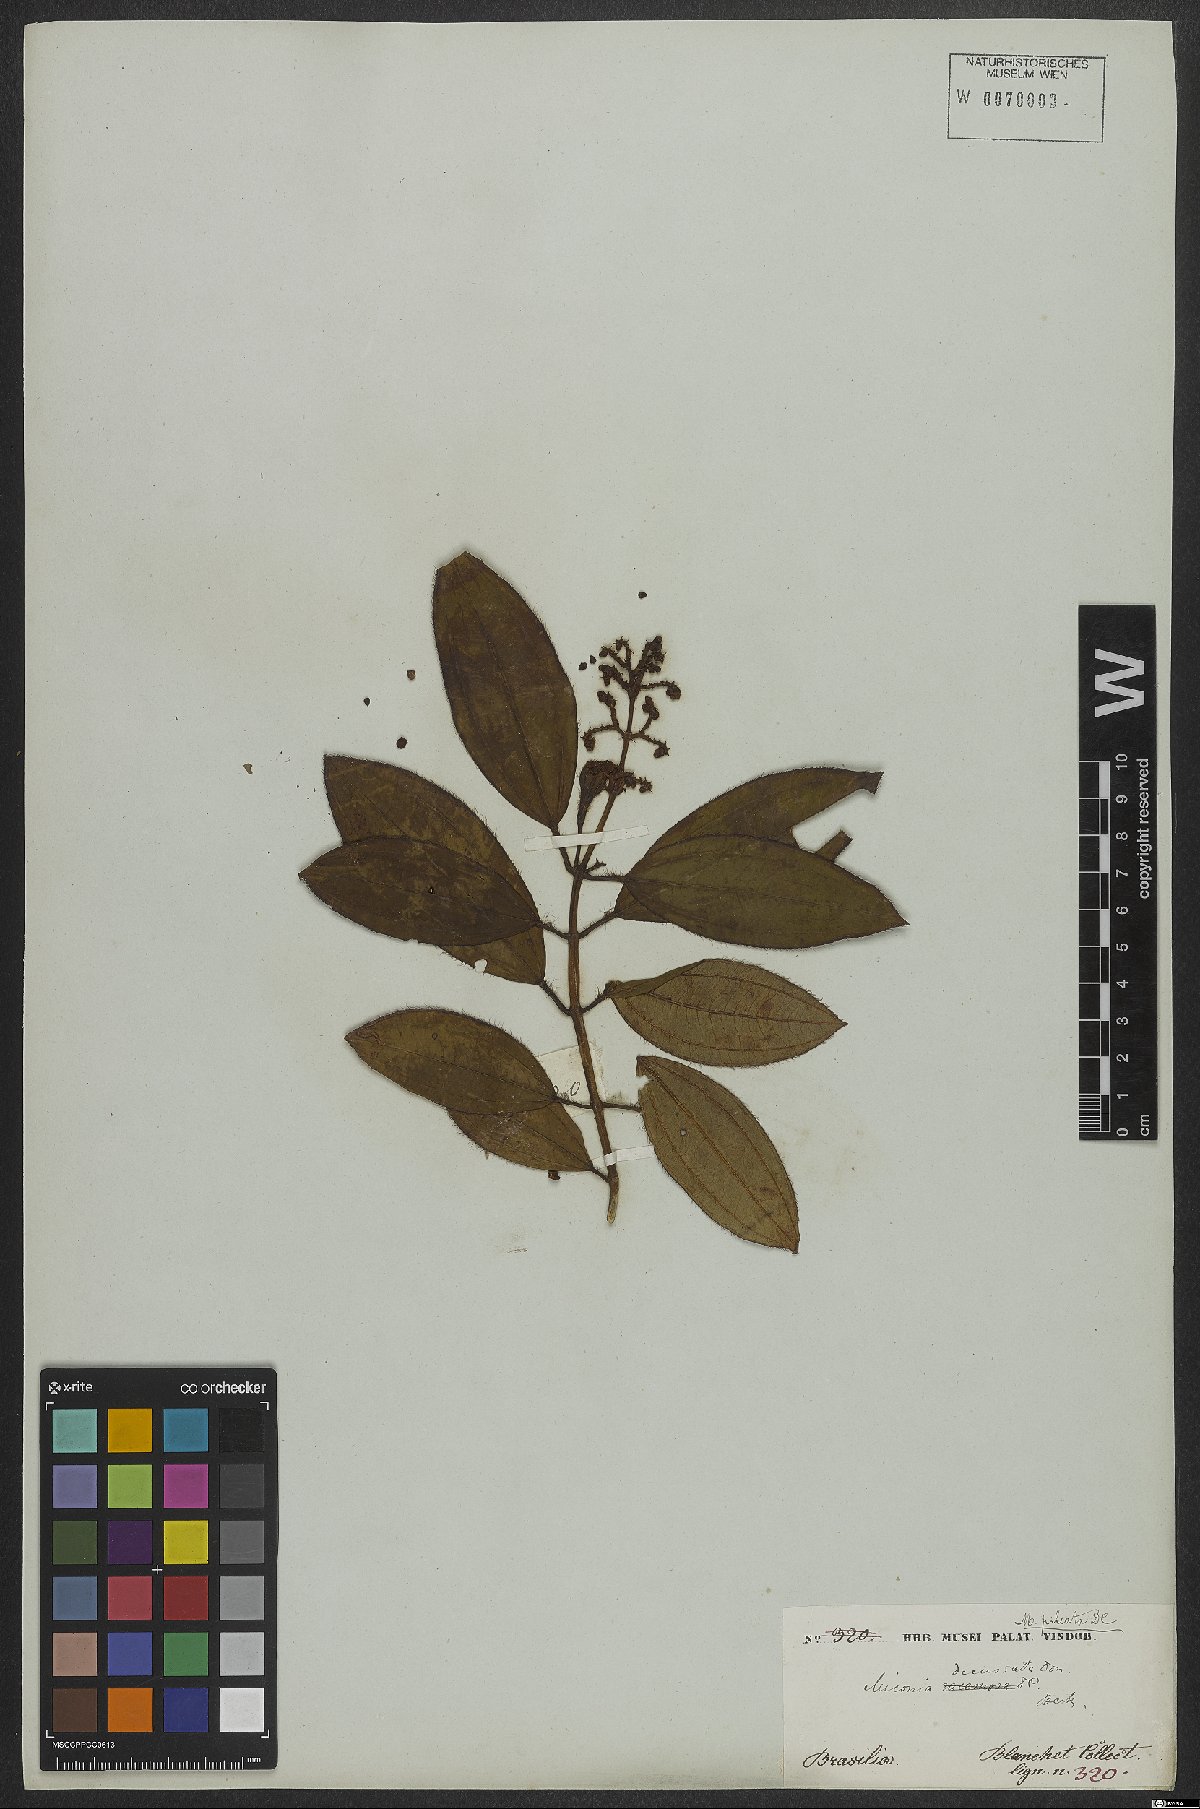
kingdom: Plantae
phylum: Tracheophyta
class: Magnoliopsida
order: Myrtales
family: Melastomataceae
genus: Miconia
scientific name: Miconia pileata
